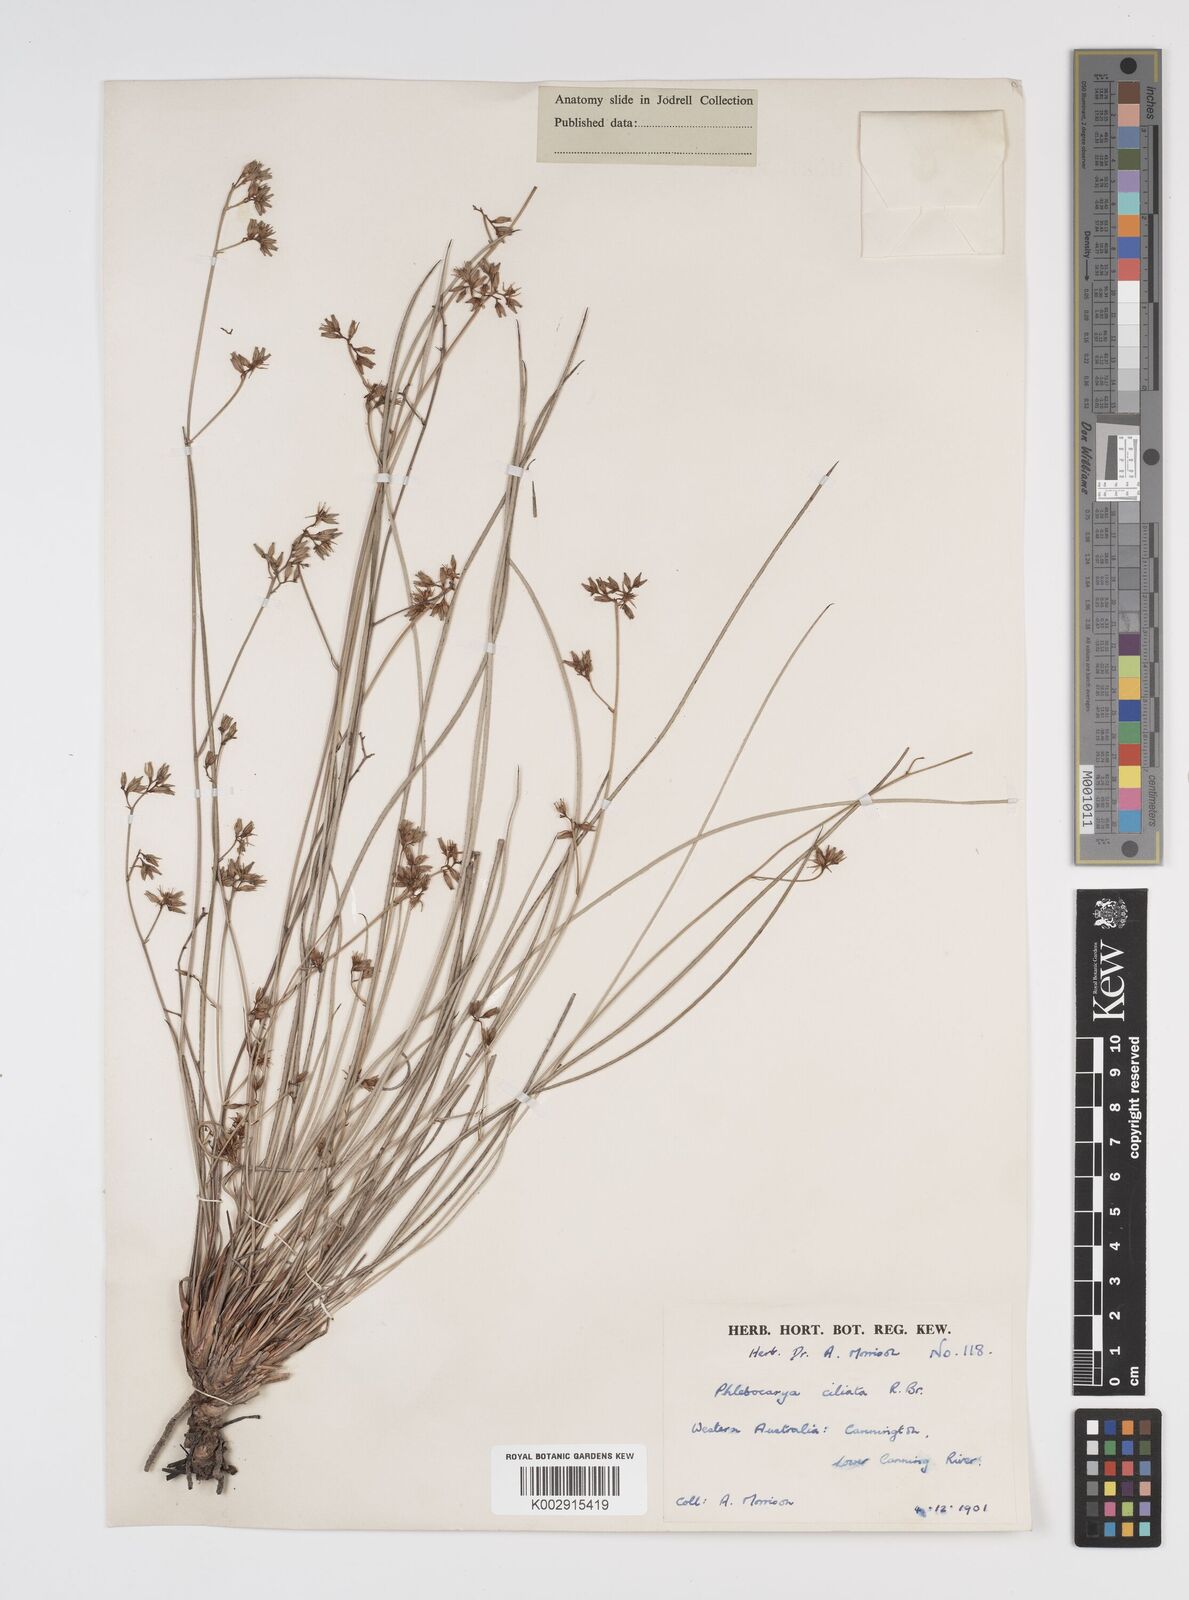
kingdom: Plantae
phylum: Tracheophyta
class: Liliopsida
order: Commelinales
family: Haemodoraceae
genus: Phlebocarya
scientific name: Phlebocarya ciliata
